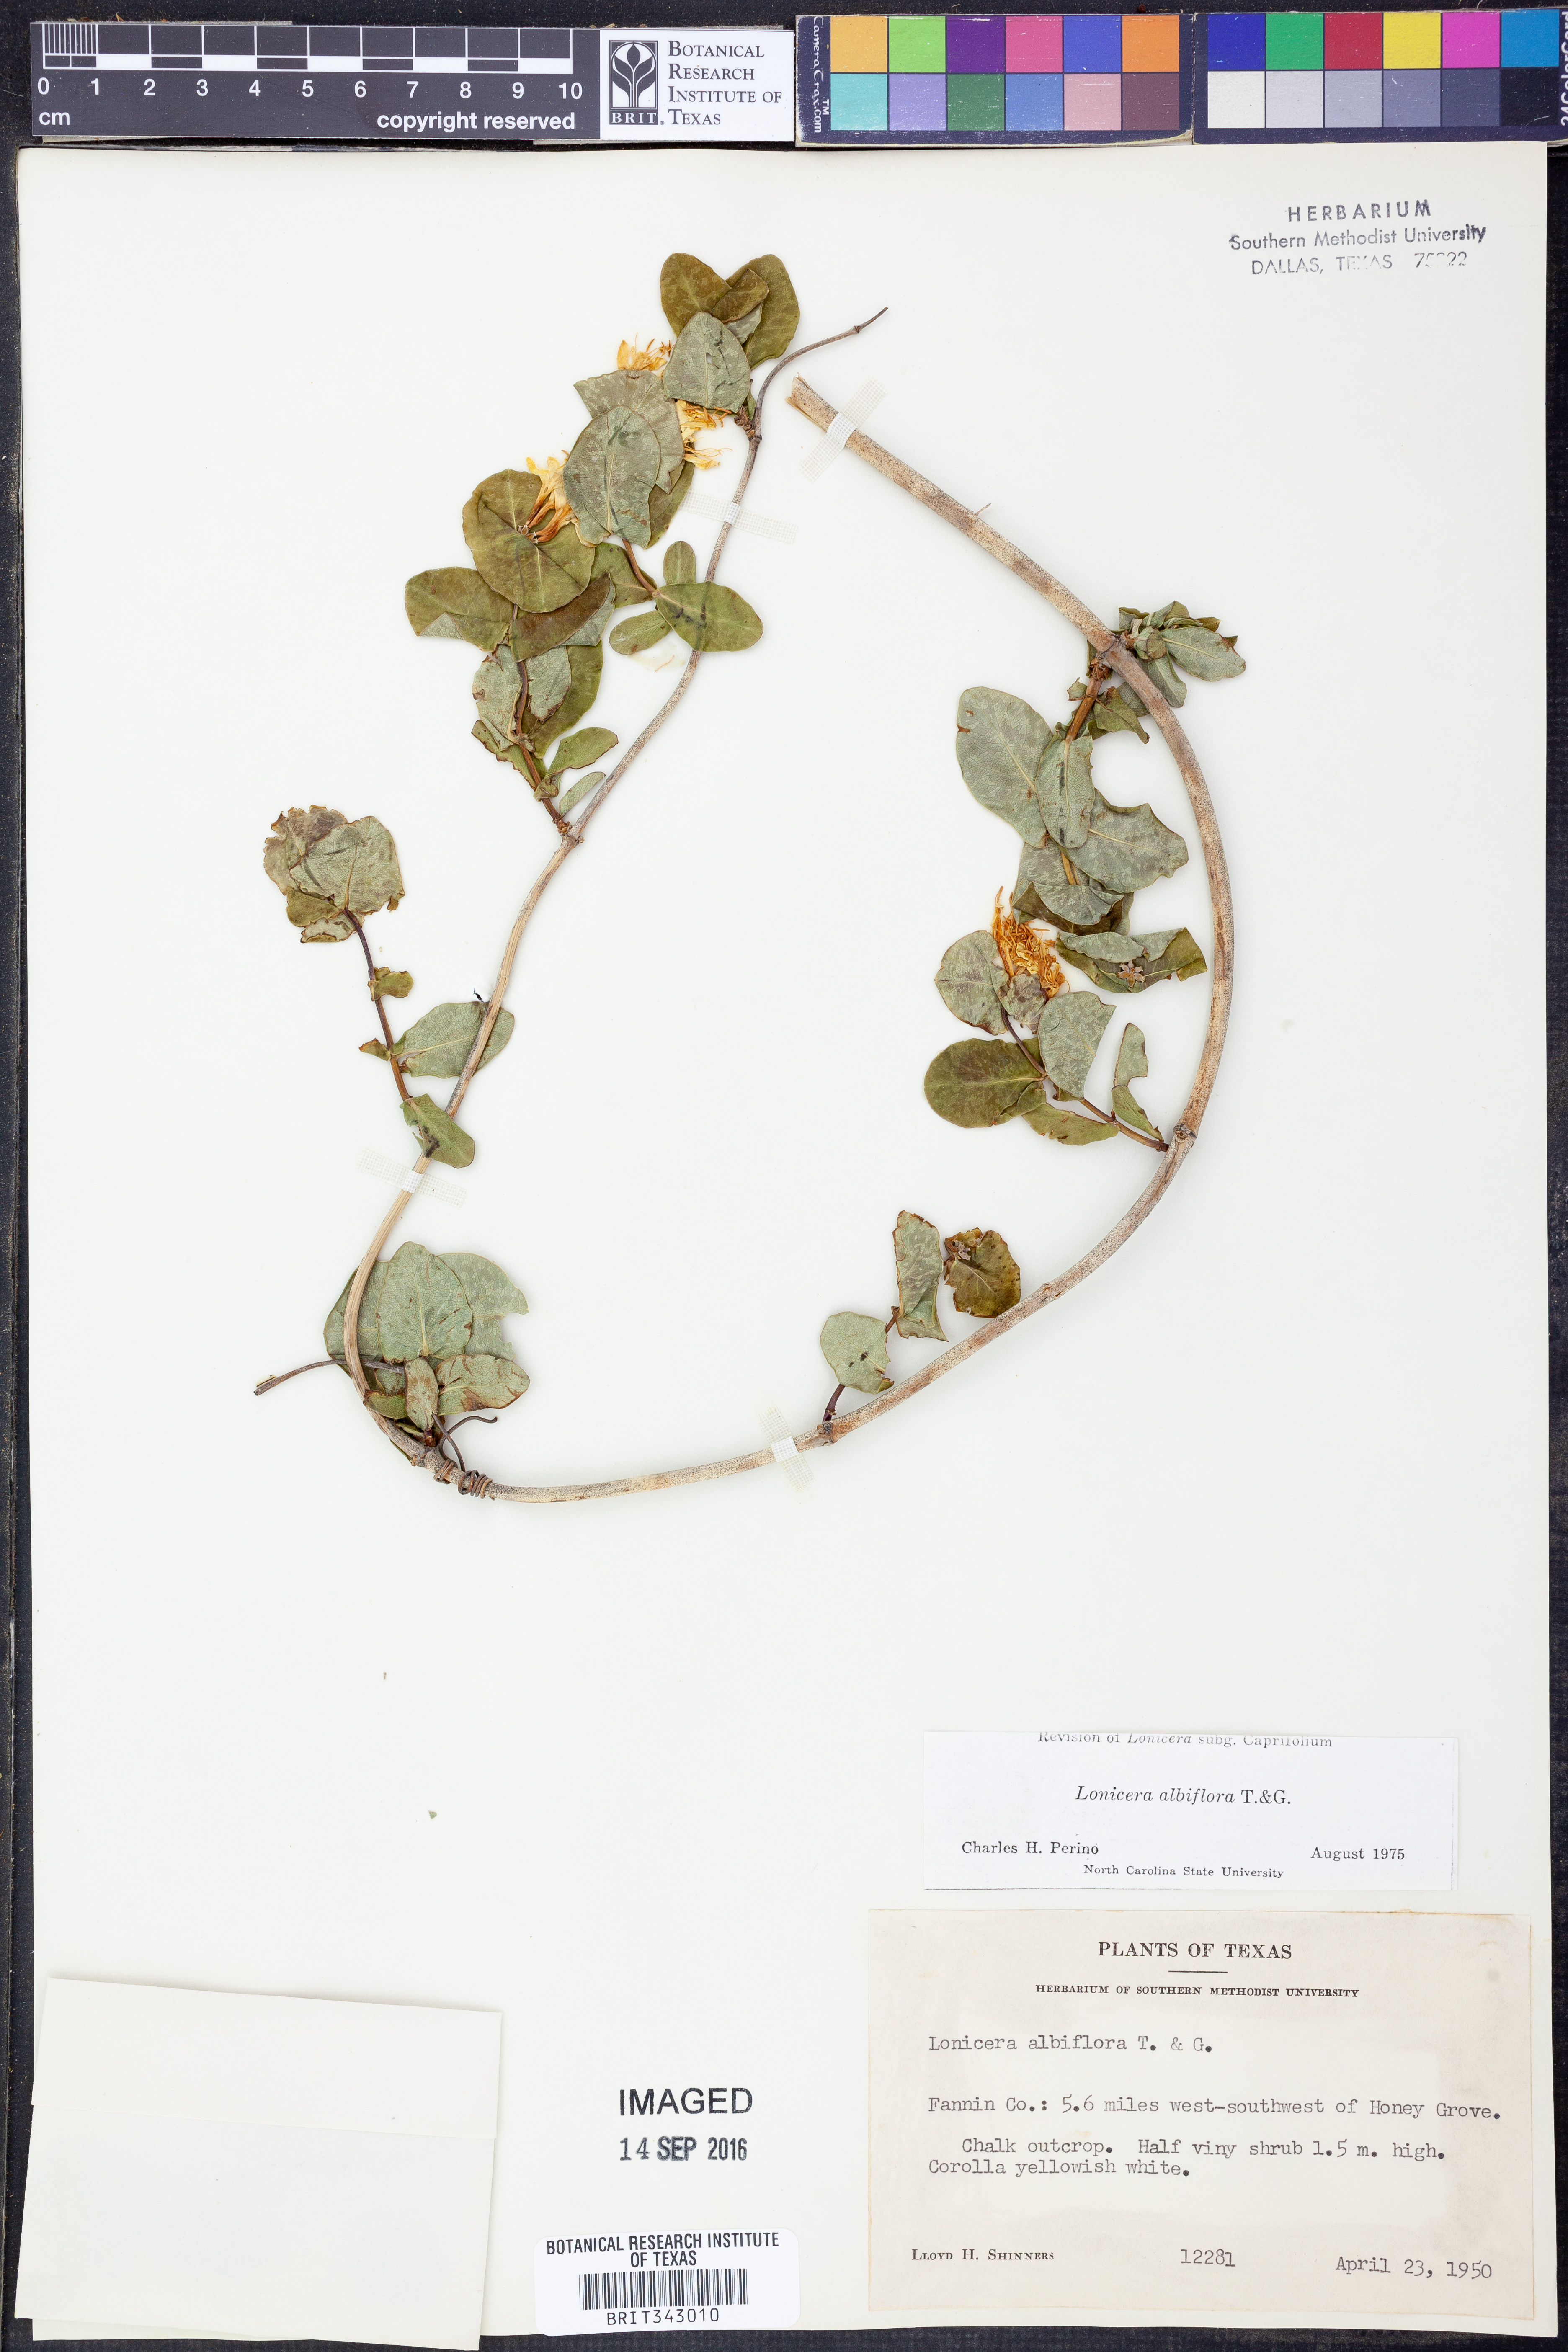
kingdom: Plantae
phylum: Tracheophyta
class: Magnoliopsida
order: Dipsacales
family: Caprifoliaceae
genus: Lonicera
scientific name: Lonicera albiflora
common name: White honeysuckle
